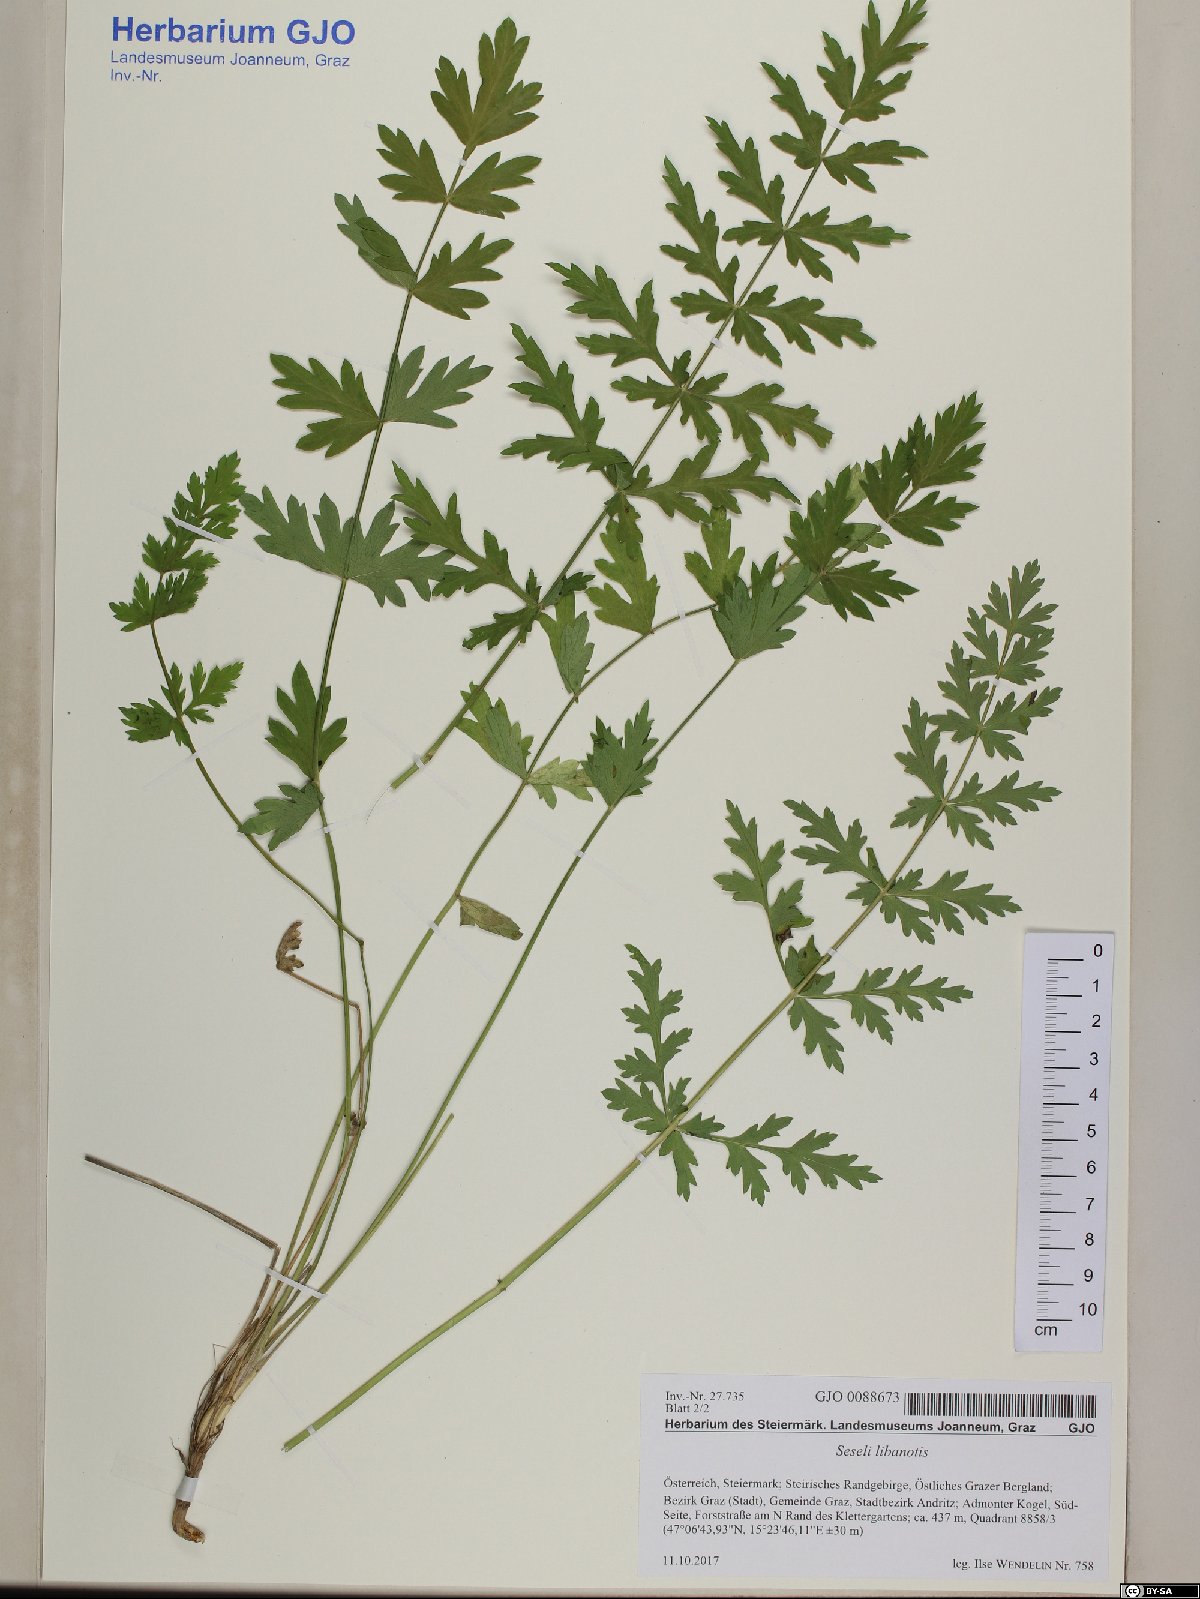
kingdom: Plantae
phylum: Tracheophyta
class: Magnoliopsida
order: Apiales
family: Apiaceae
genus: Seseli
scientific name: Seseli libanotis
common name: Mooncarrot
